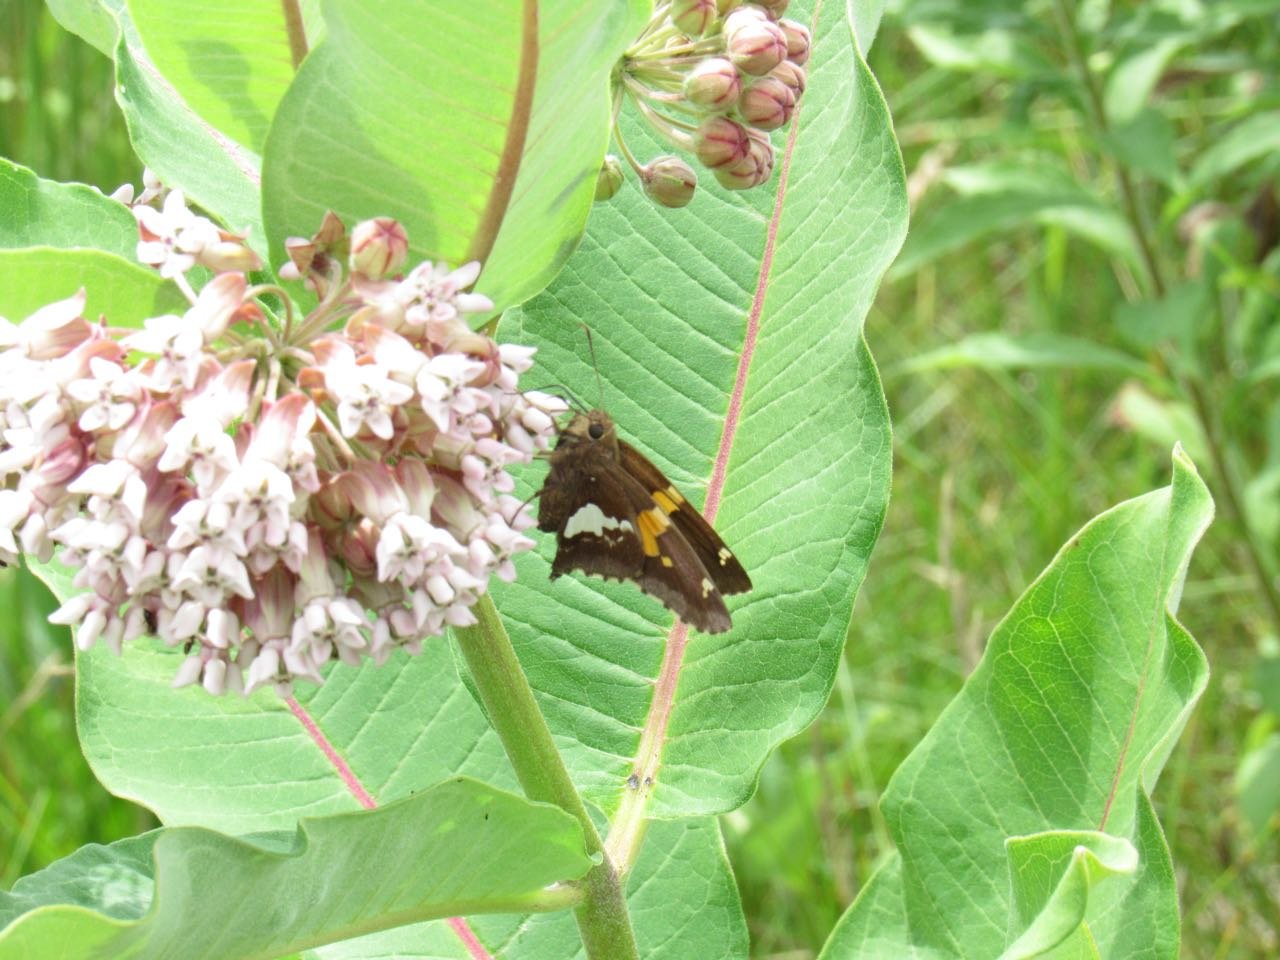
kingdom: Animalia
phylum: Arthropoda
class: Insecta
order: Lepidoptera
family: Hesperiidae
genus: Epargyreus
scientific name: Epargyreus clarus
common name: Silver-spotted Skipper
